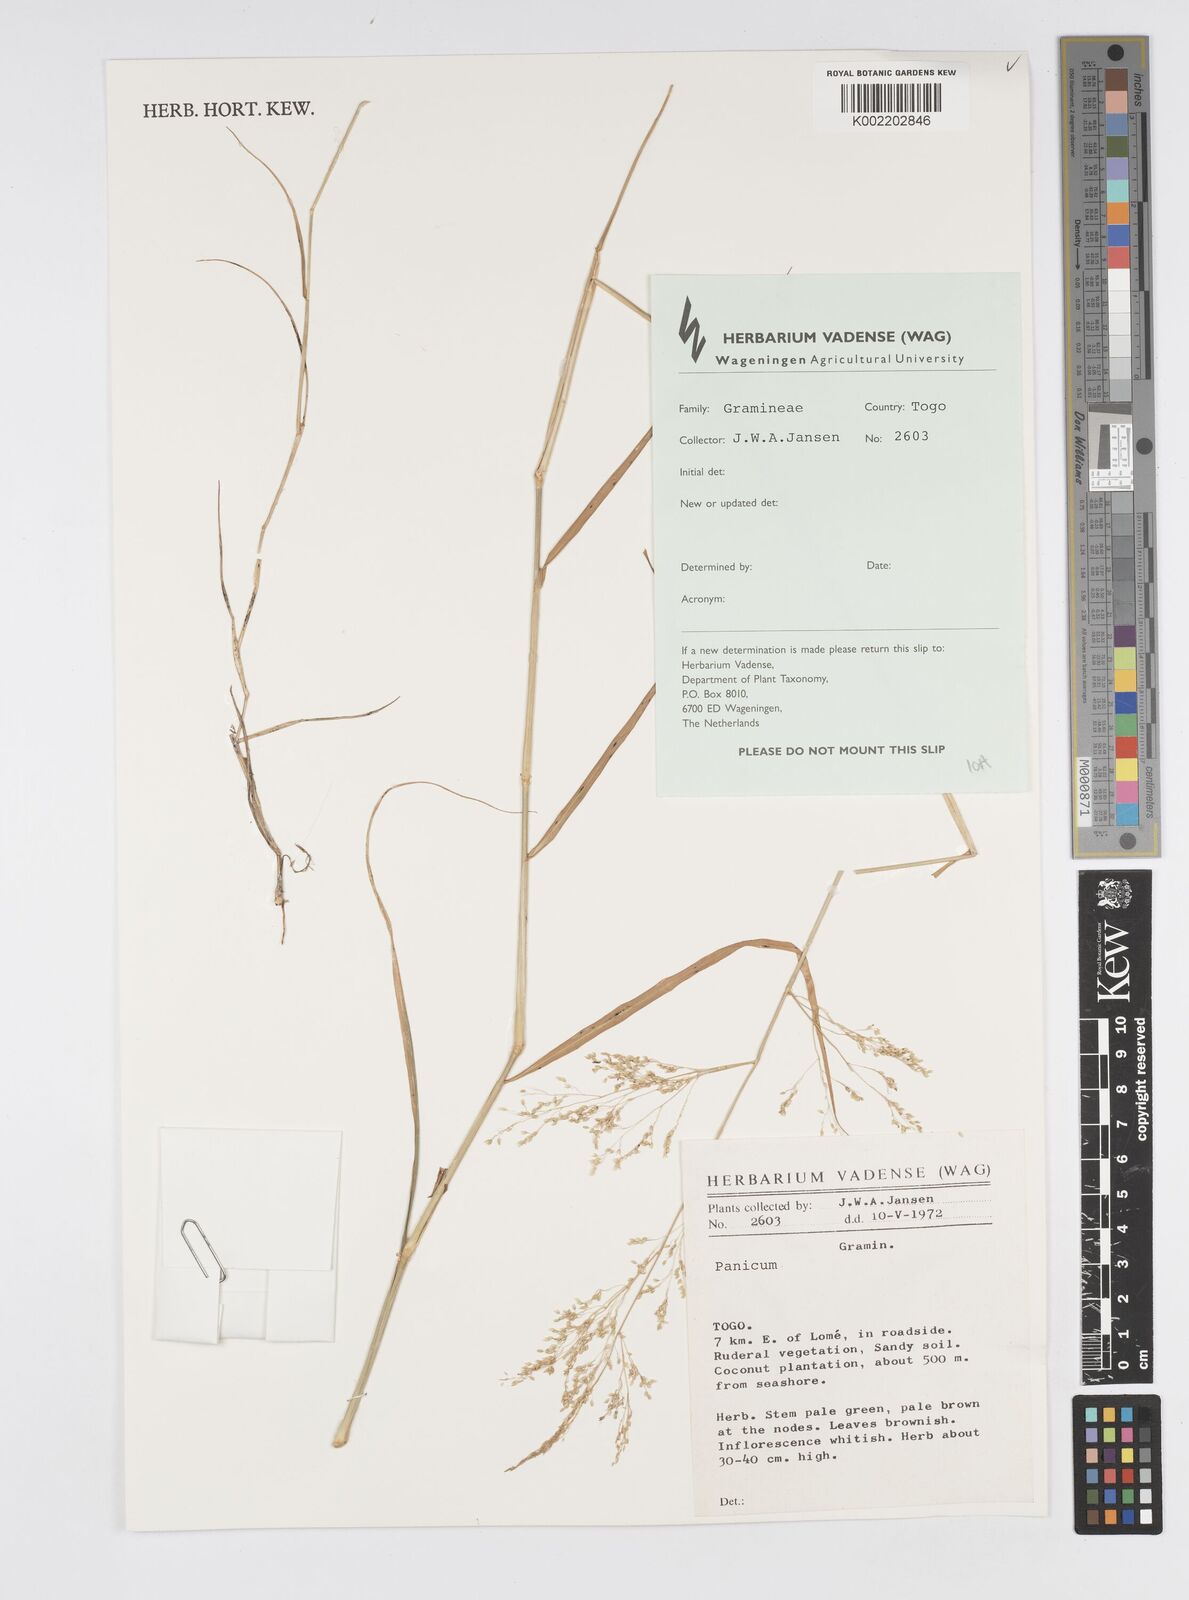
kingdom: Plantae
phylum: Tracheophyta
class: Liliopsida
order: Poales
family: Poaceae
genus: Cenchrus
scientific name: Cenchrus Pennisetum spec
